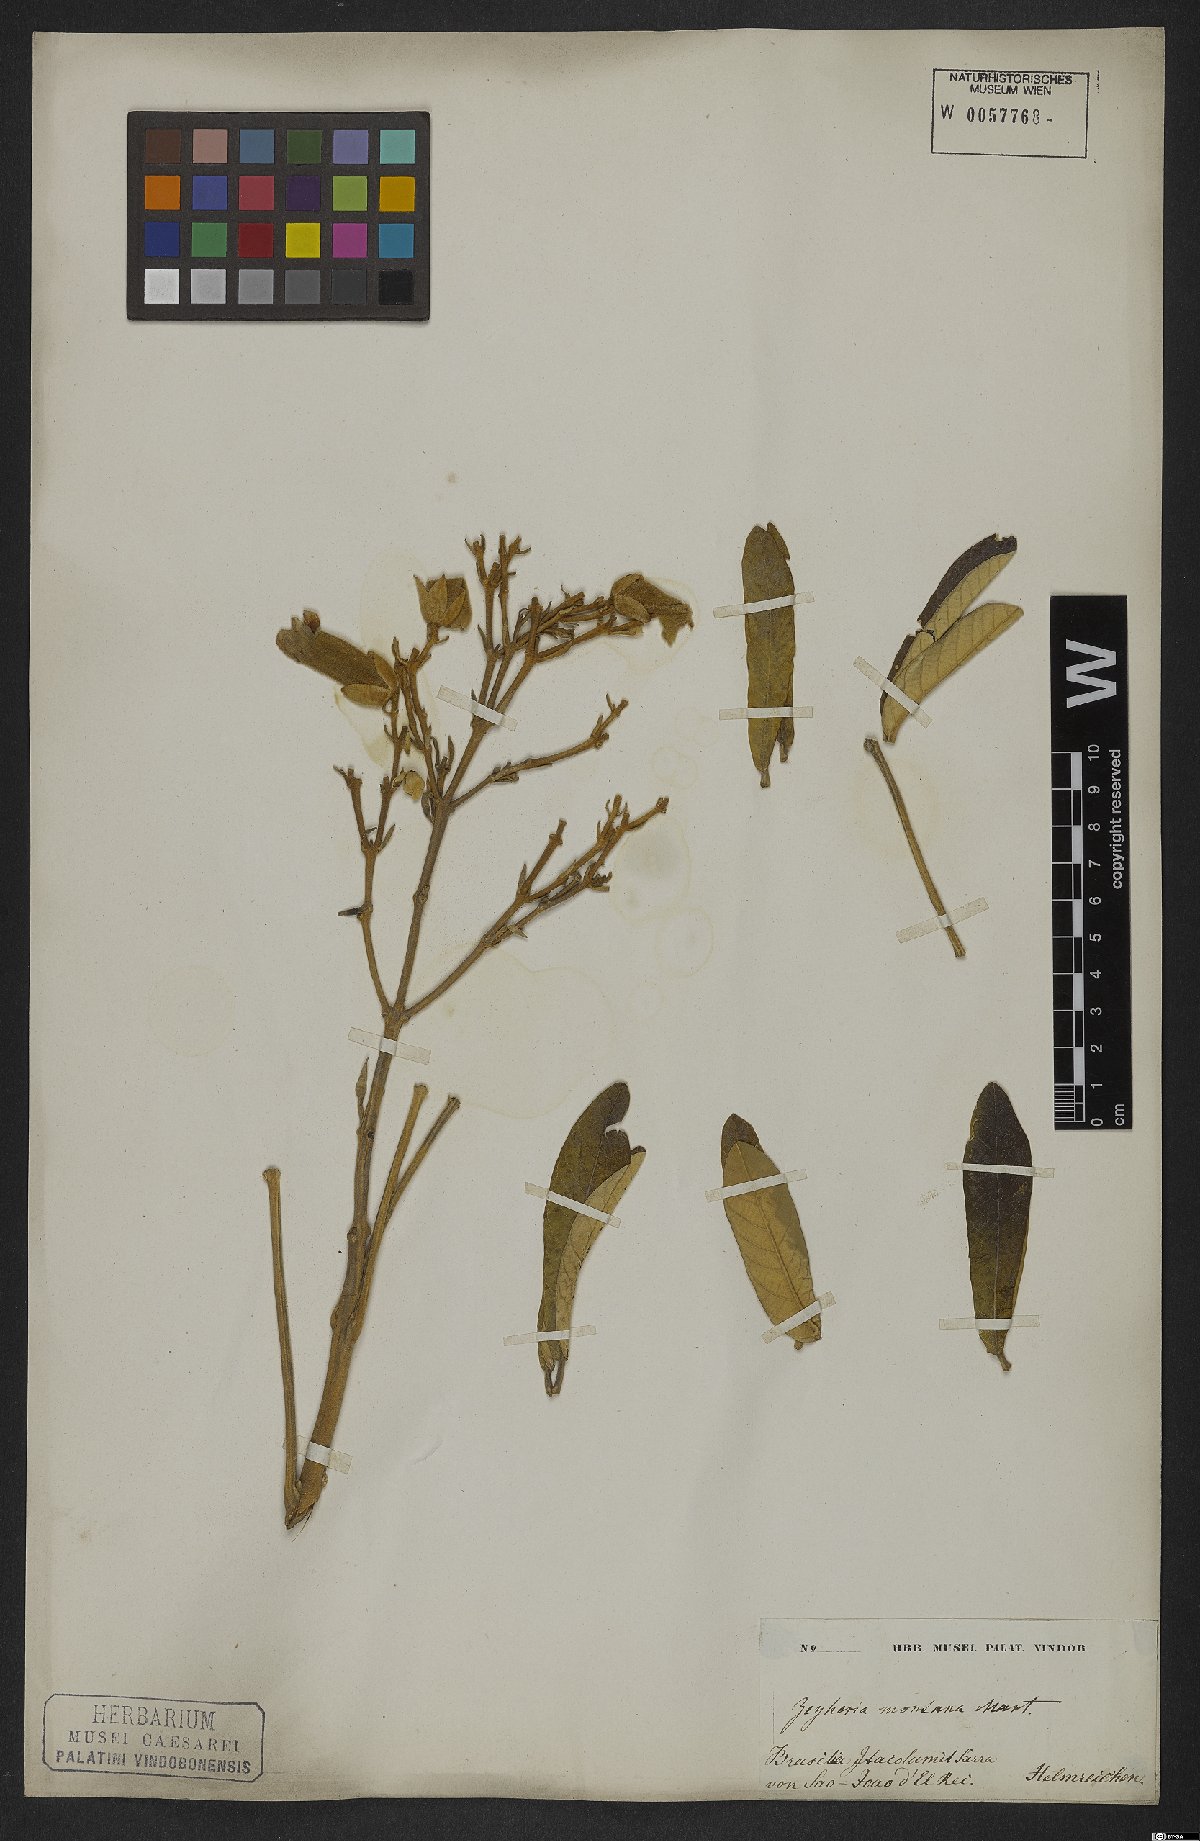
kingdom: Plantae
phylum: Tracheophyta
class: Magnoliopsida
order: Lamiales
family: Bignoniaceae
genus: Zeyheria
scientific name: Zeyheria montana
